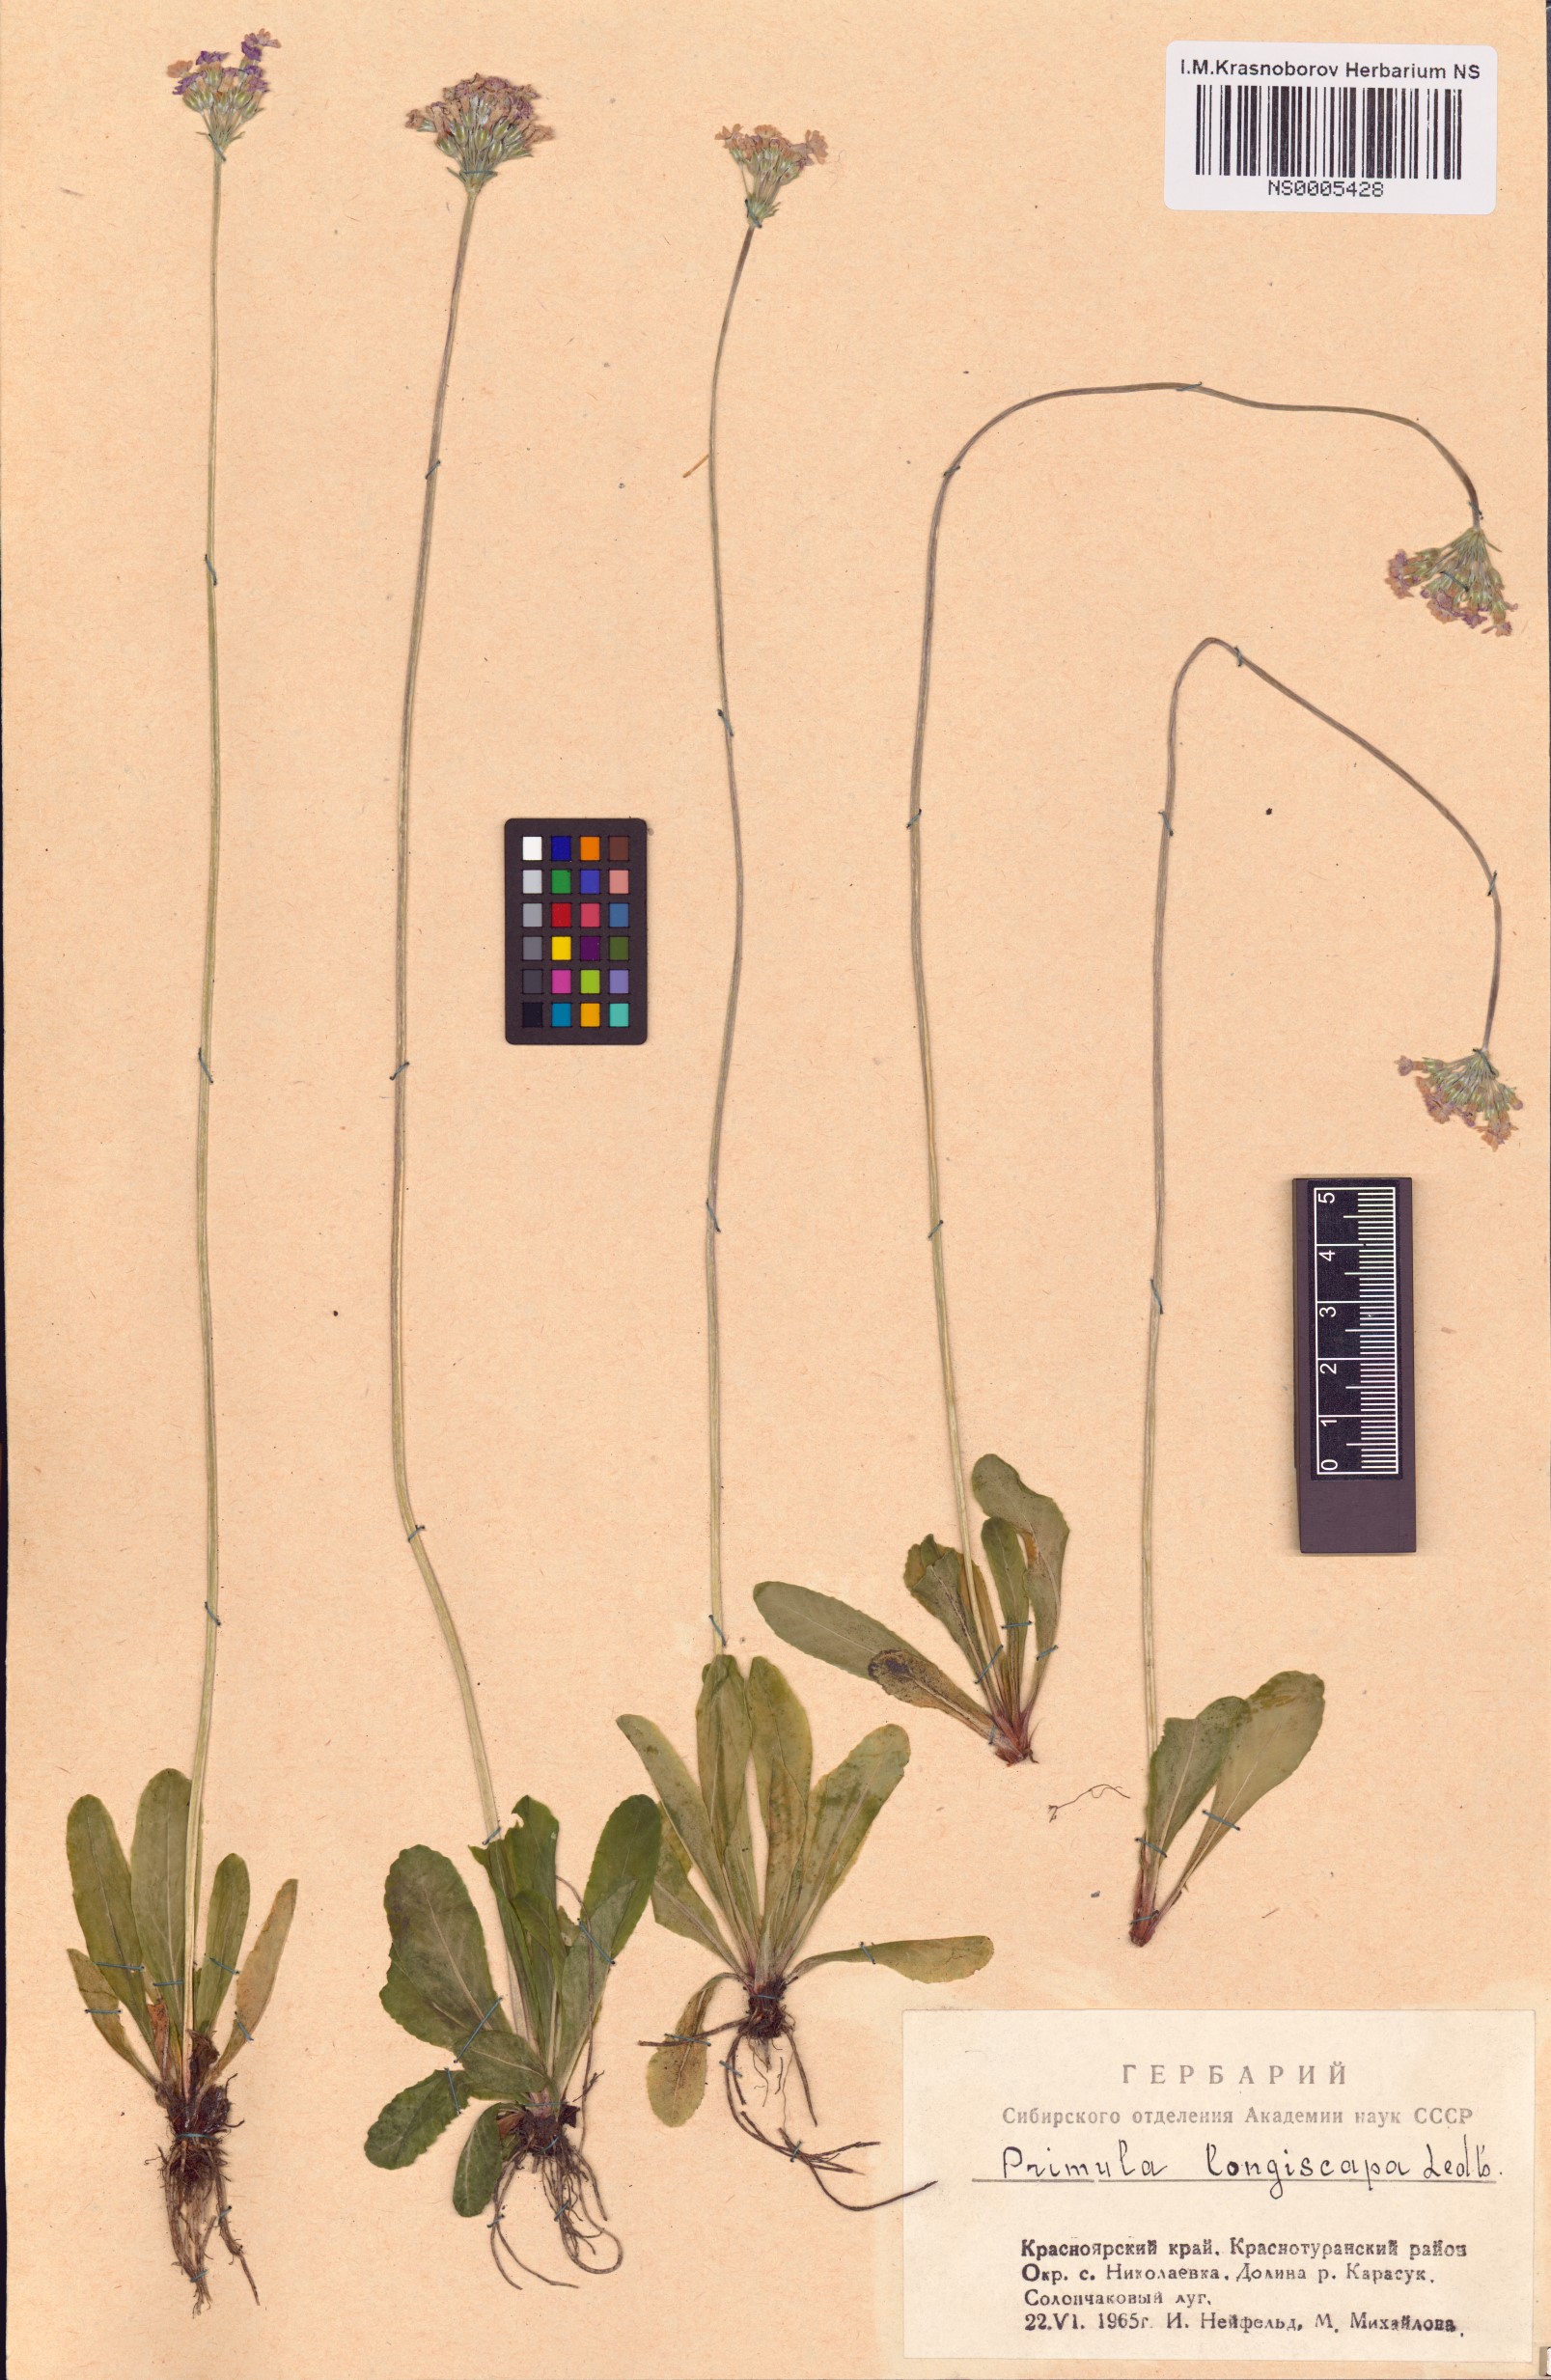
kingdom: Plantae
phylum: Tracheophyta
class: Magnoliopsida
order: Ericales
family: Primulaceae
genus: Primula
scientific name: Primula longiscapa
